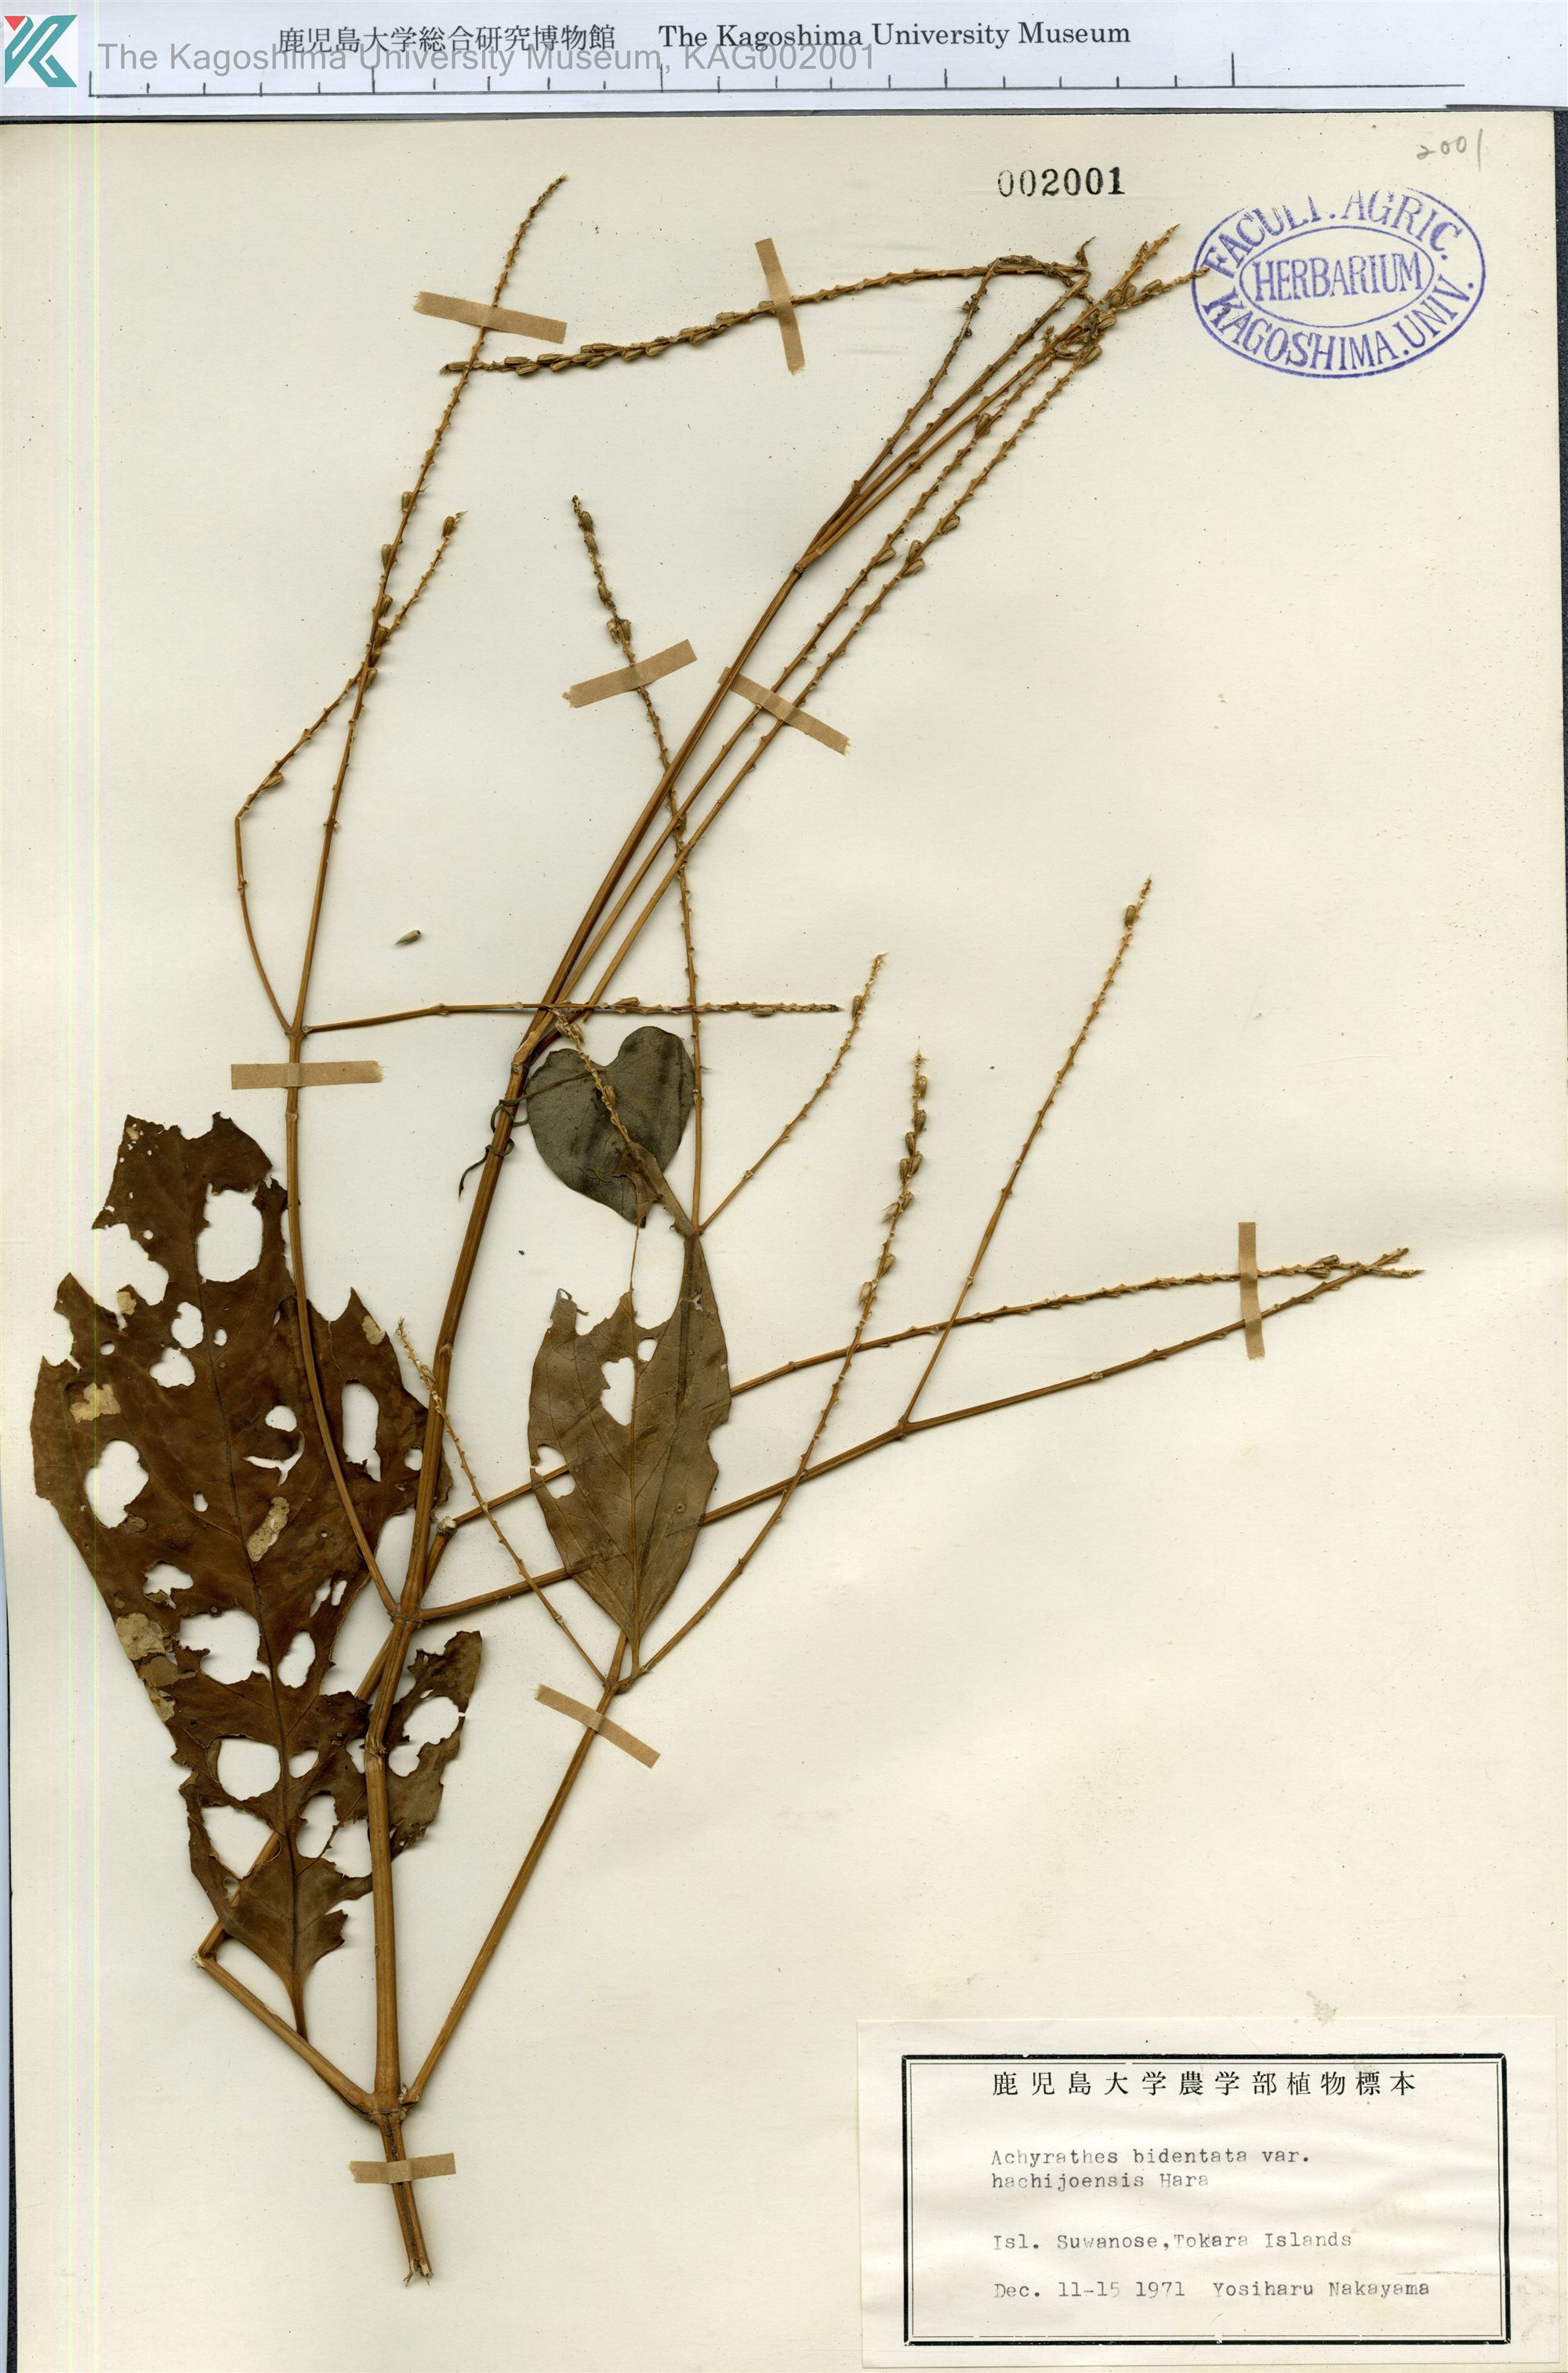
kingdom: Plantae
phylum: Tracheophyta
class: Magnoliopsida
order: Caryophyllales
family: Amaranthaceae
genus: Achyranthes
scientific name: Achyranthes bidentata
